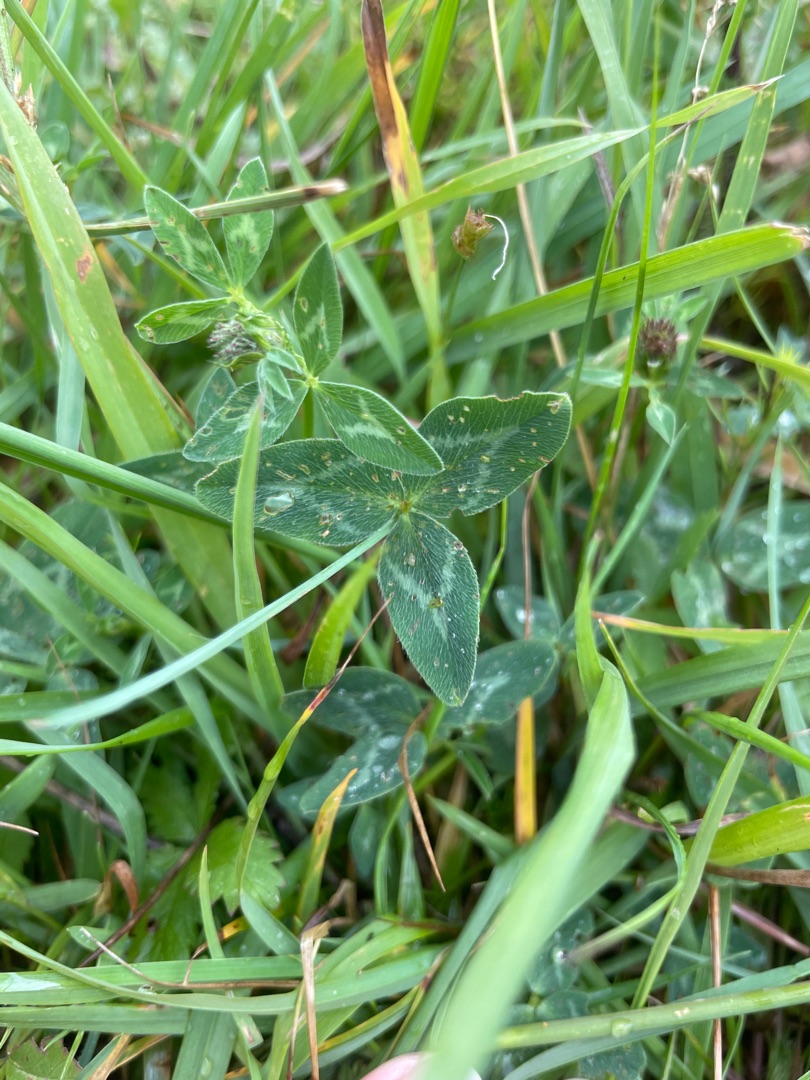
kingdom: Plantae
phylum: Tracheophyta
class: Magnoliopsida
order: Fabales
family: Fabaceae
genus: Trifolium
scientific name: Trifolium pratense
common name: Rød-kløver
